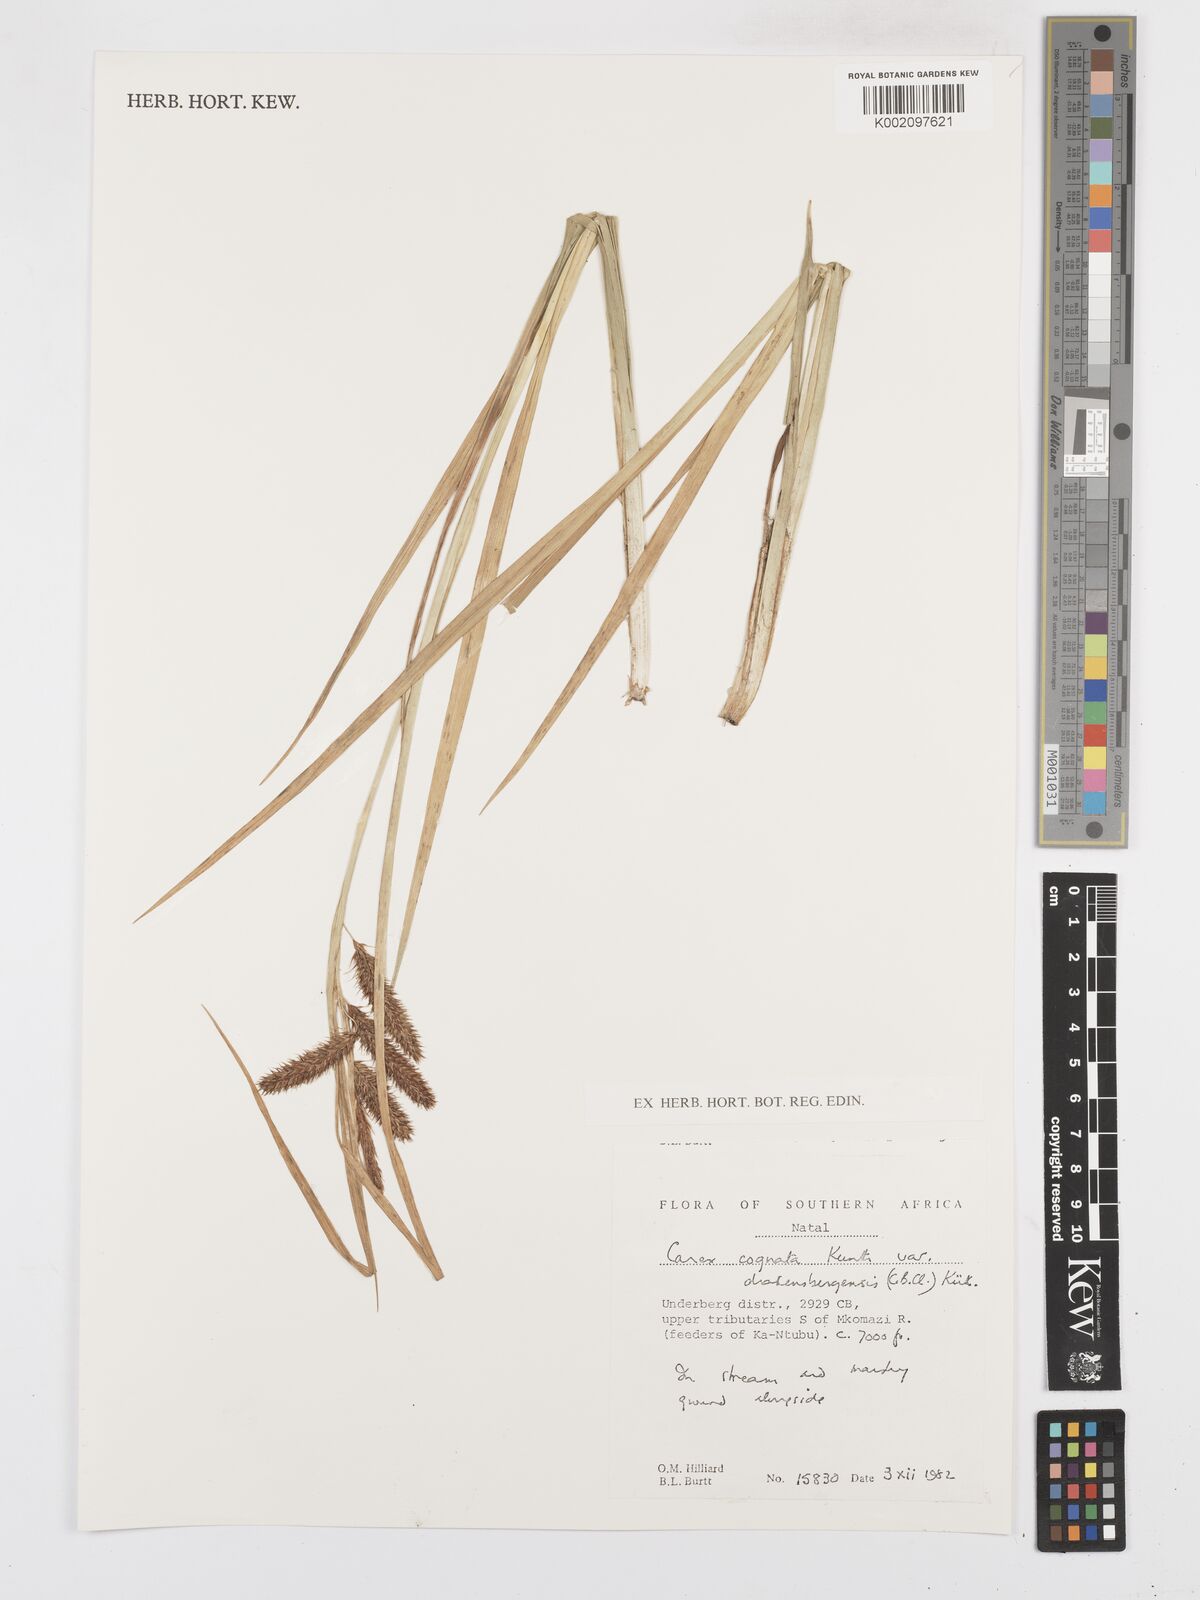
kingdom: Plantae
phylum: Tracheophyta
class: Liliopsida
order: Poales
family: Cyperaceae
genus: Carex
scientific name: Carex cognata
